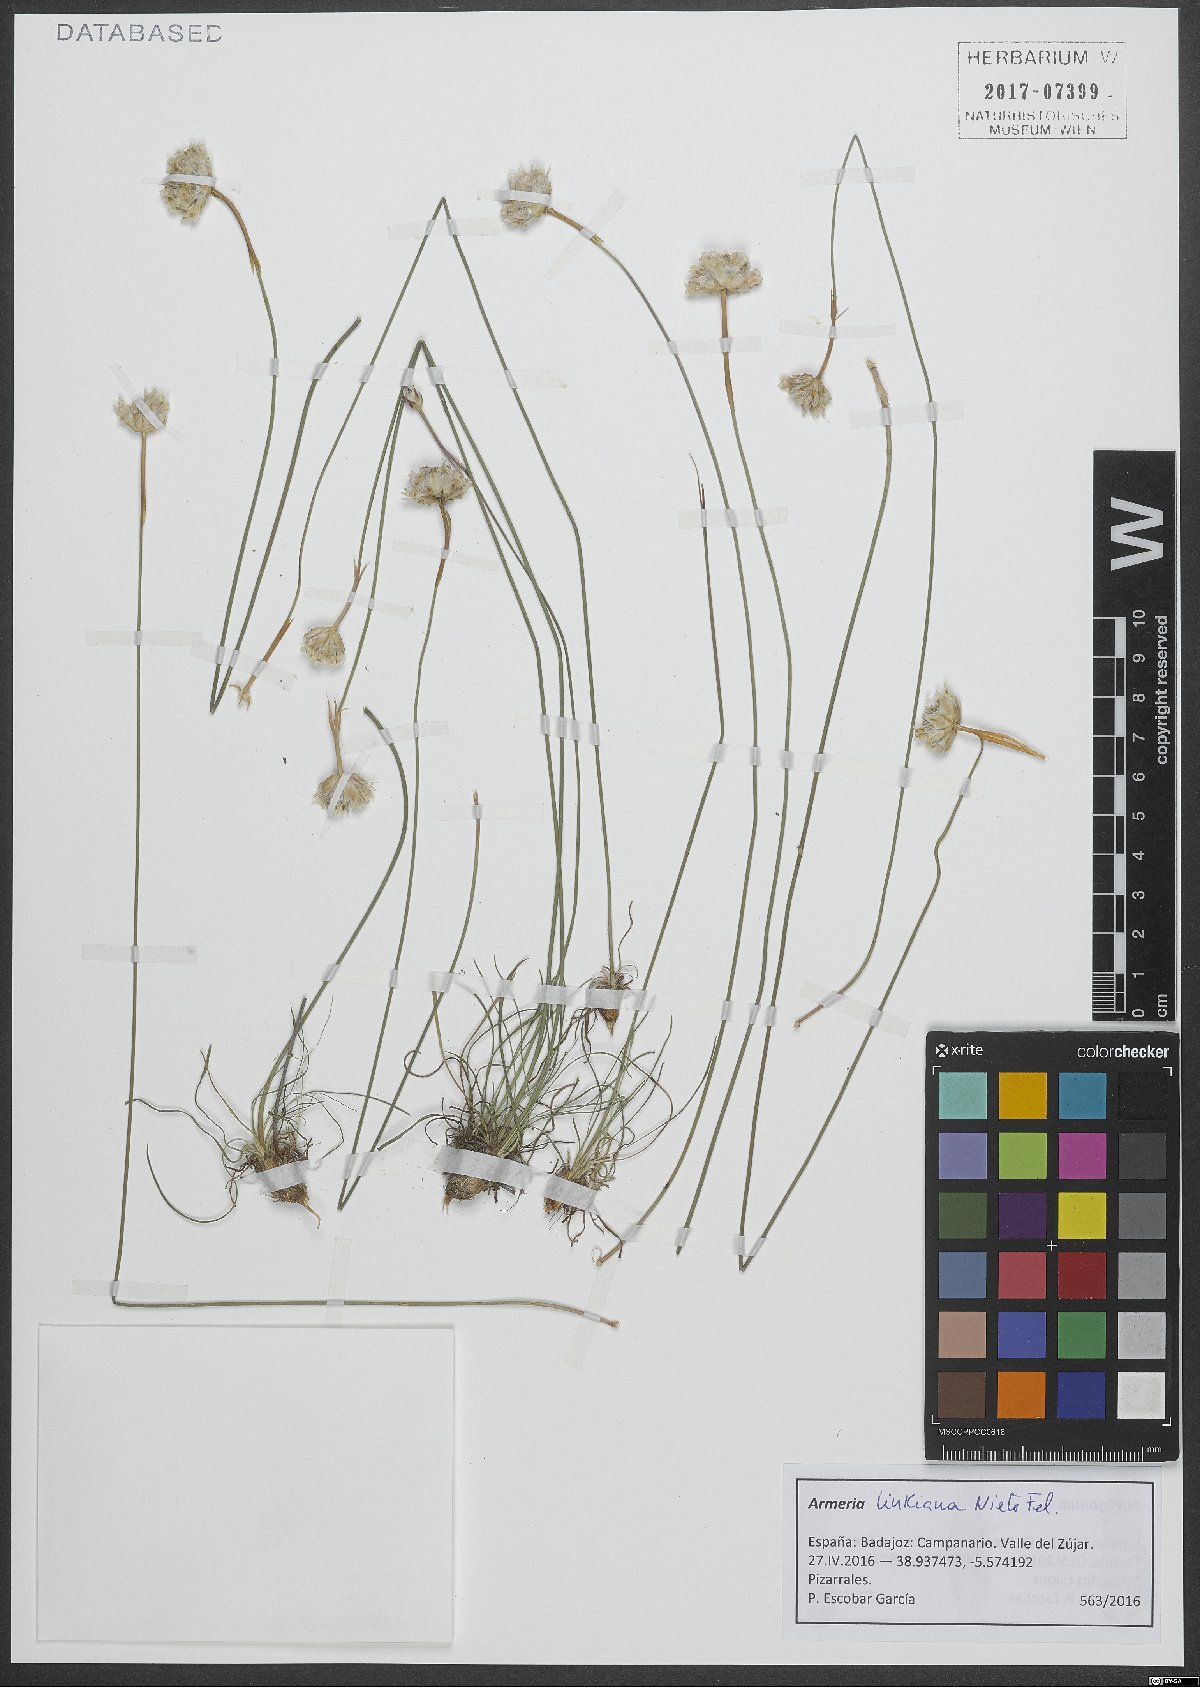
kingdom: Plantae
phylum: Tracheophyta
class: Magnoliopsida
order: Caryophyllales
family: Plumbaginaceae
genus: Armeria
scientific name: Armeria linkiana
